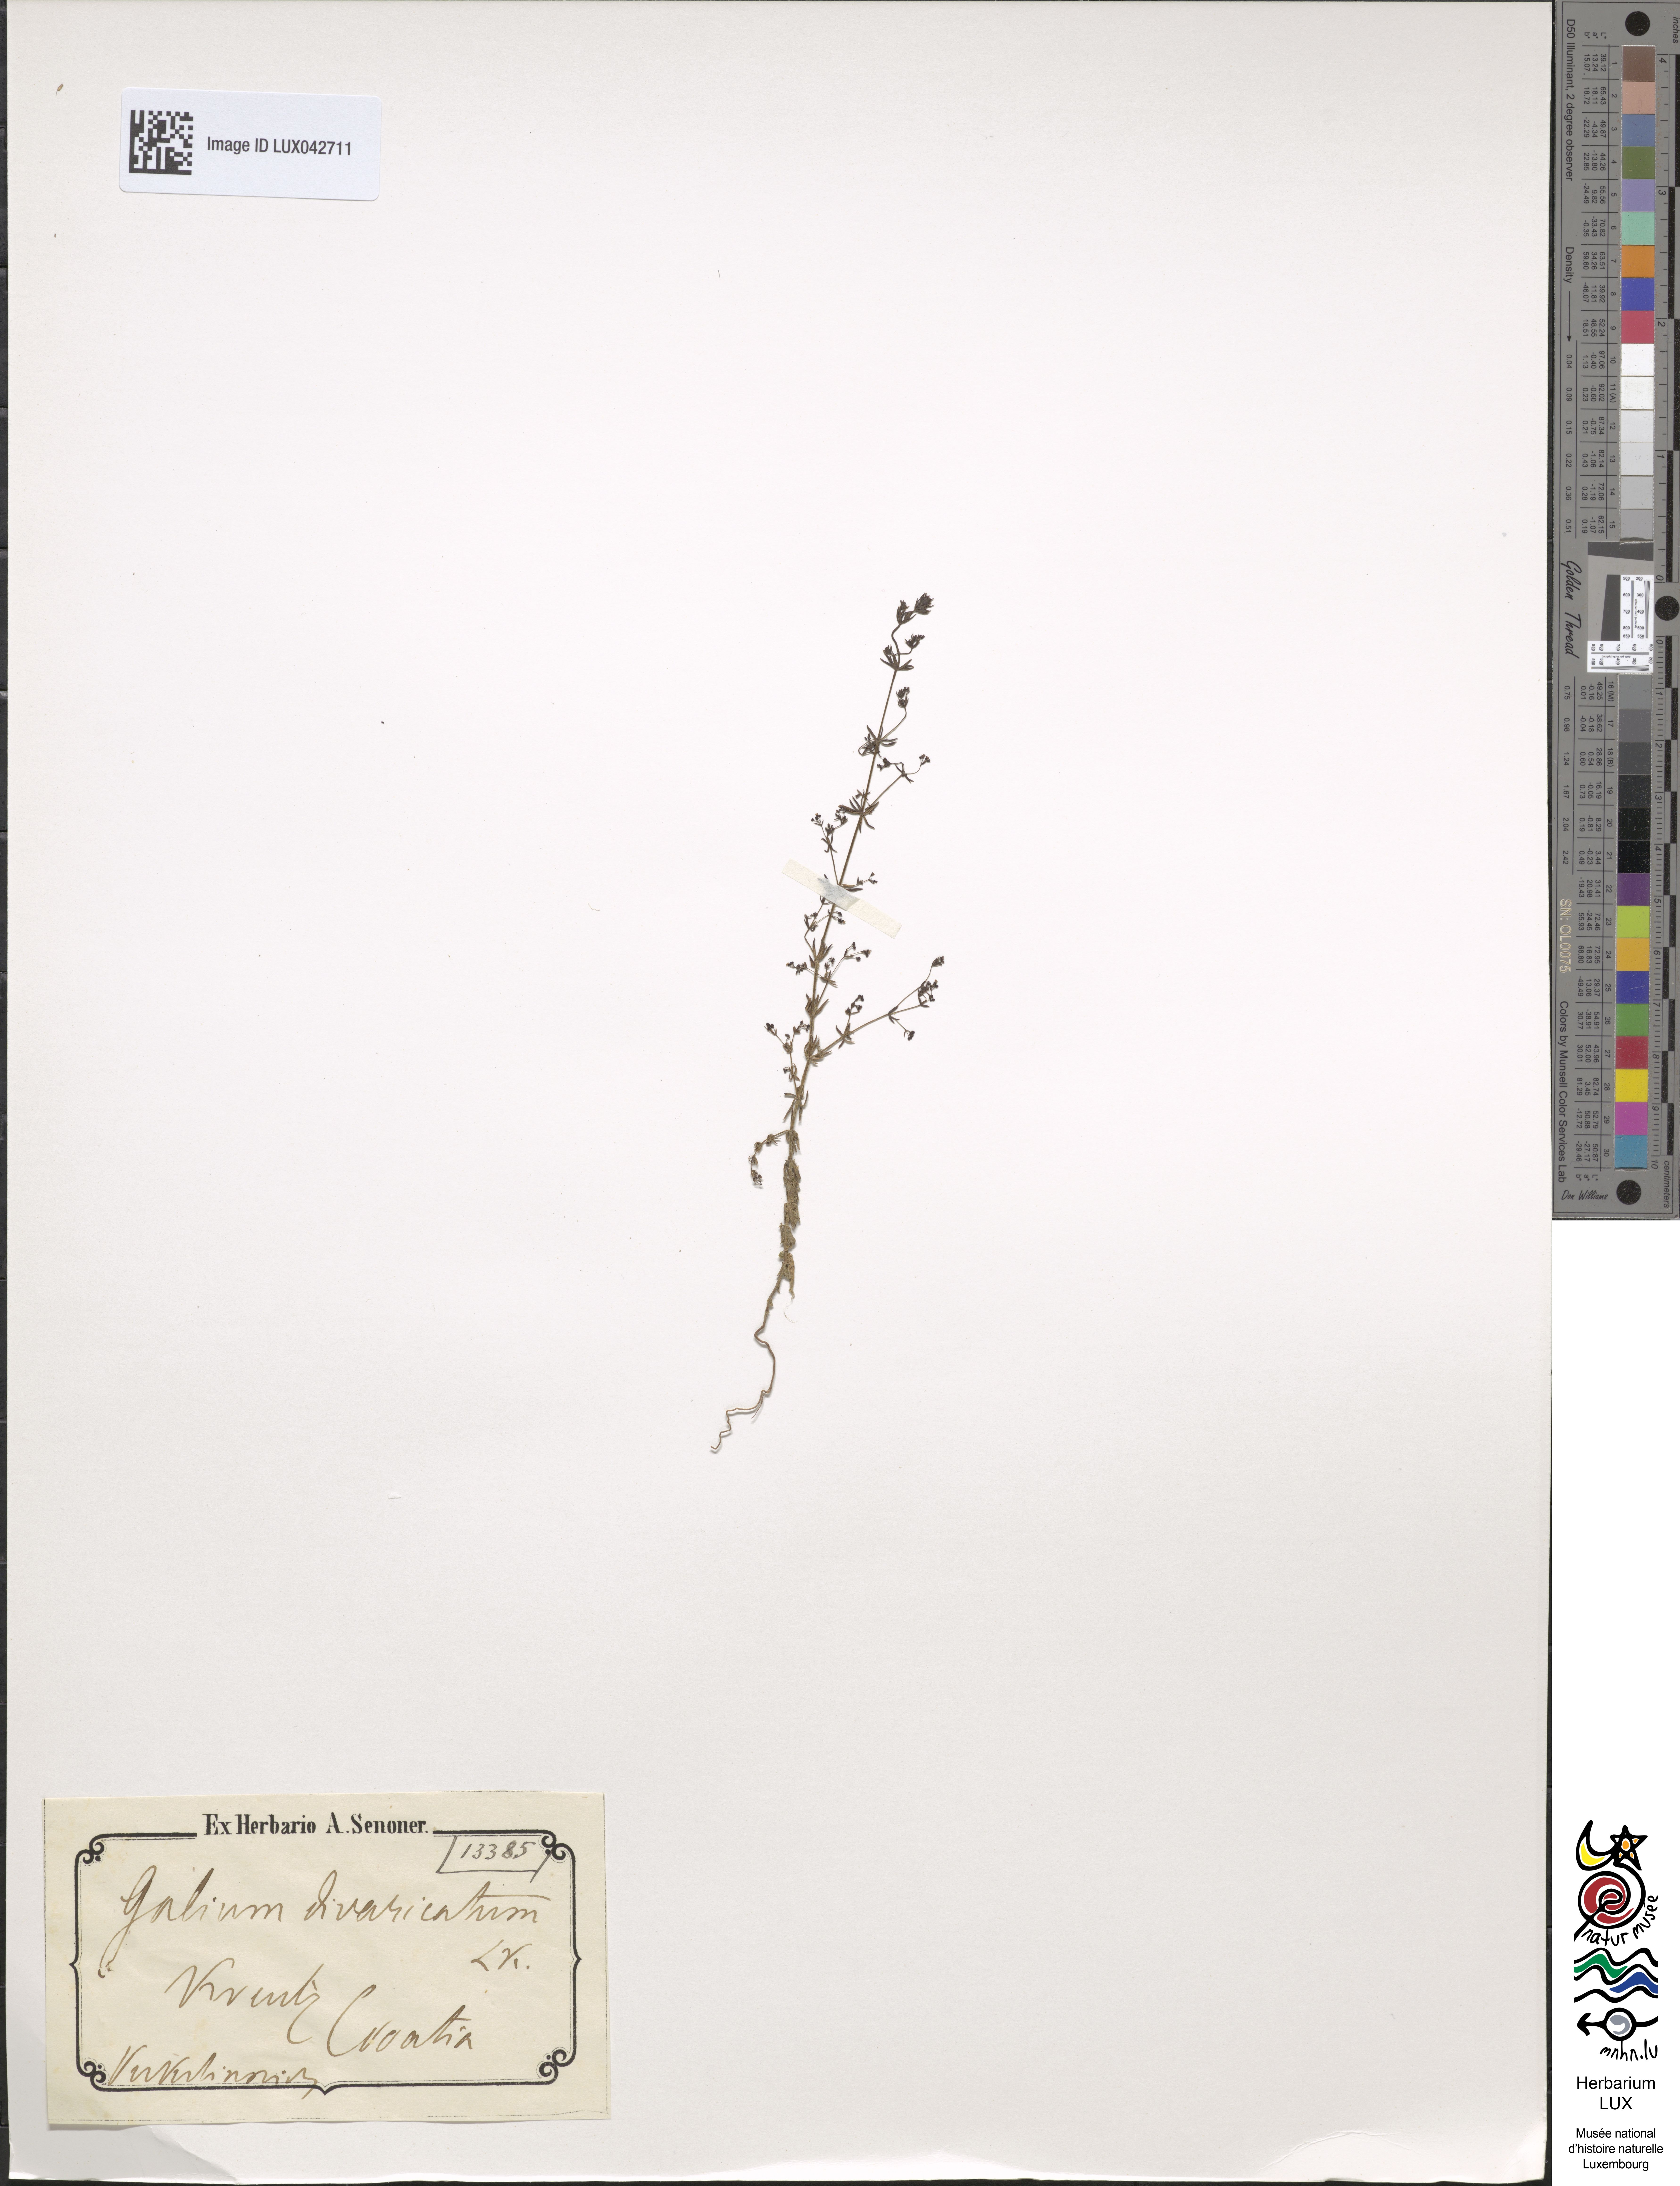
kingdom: Plantae
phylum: Tracheophyta
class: Magnoliopsida
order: Gentianales
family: Rubiaceae
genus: Galium
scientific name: Galium divaricatum
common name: Lamarck's bedstraw
